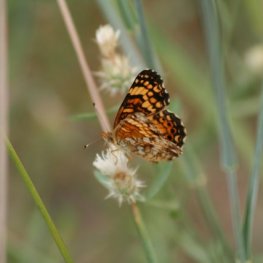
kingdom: Animalia
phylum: Arthropoda
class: Insecta
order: Lepidoptera
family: Nymphalidae
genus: Eresia
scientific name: Eresia aveyrona
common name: Mylitta Crescent
